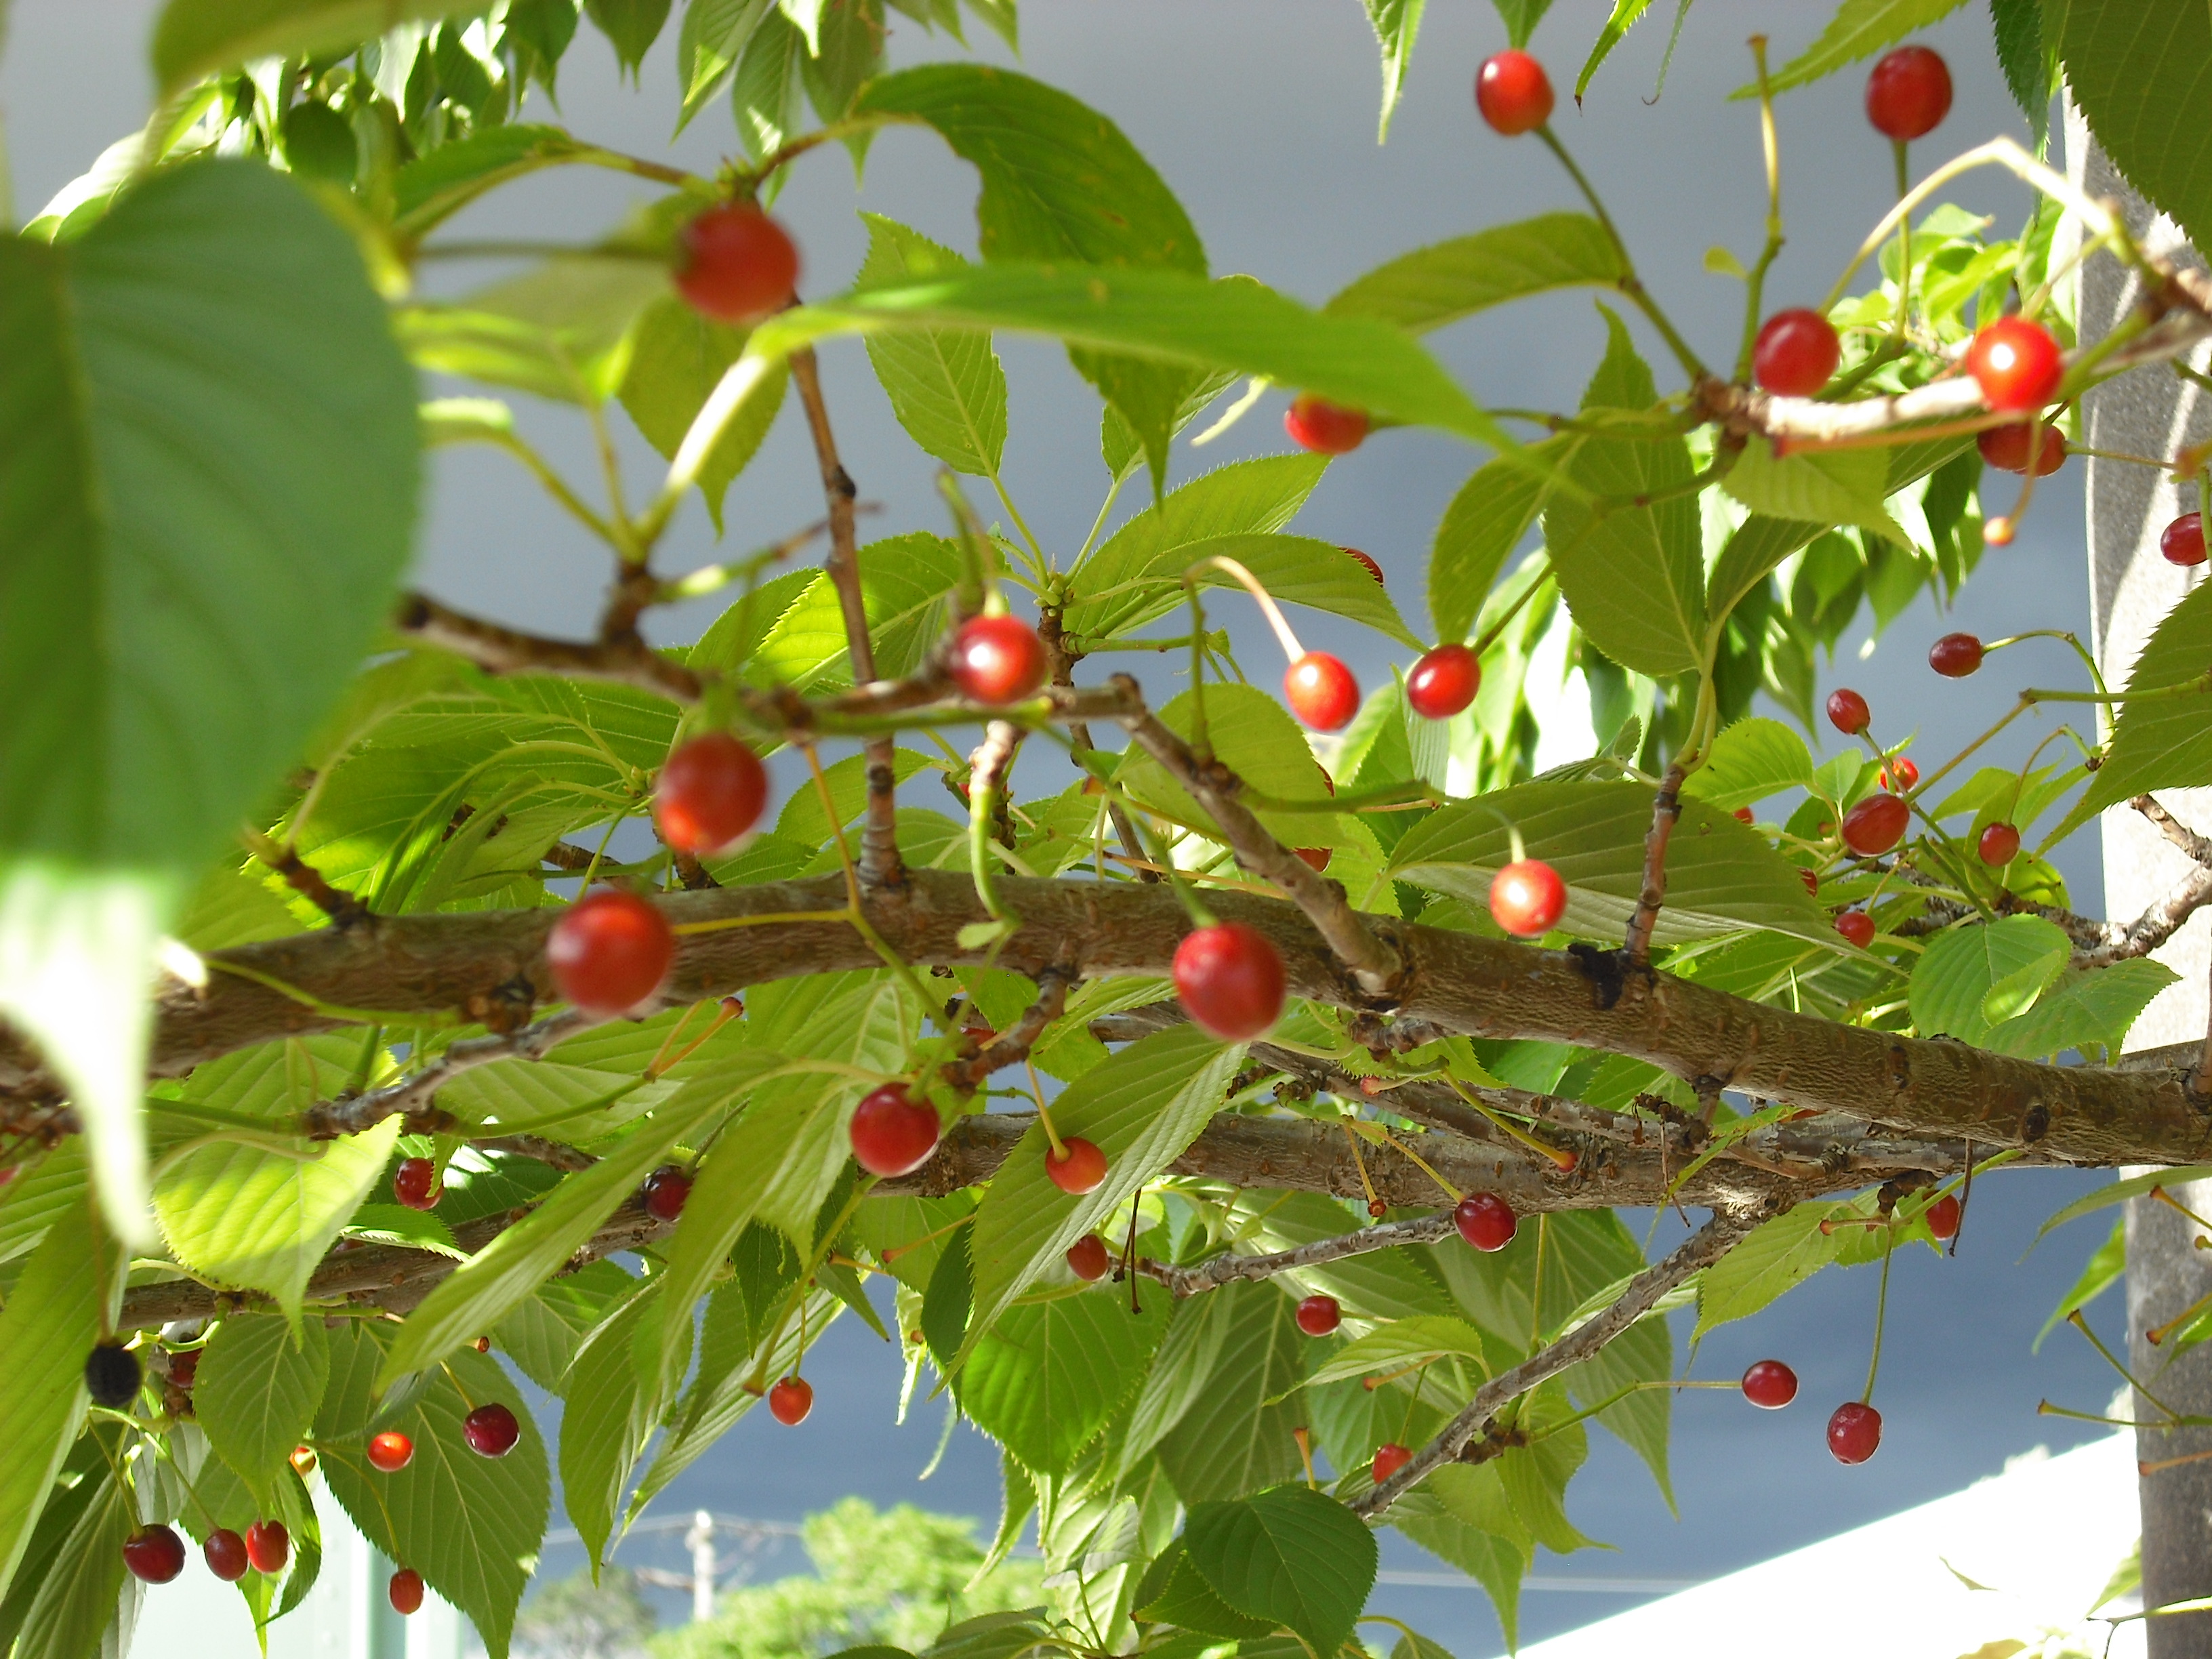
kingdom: Plantae
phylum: Tracheophyta
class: Magnoliopsida
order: Rosales
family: Rosaceae
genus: Prunus
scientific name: Prunus serrulata
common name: Japanese cherry
